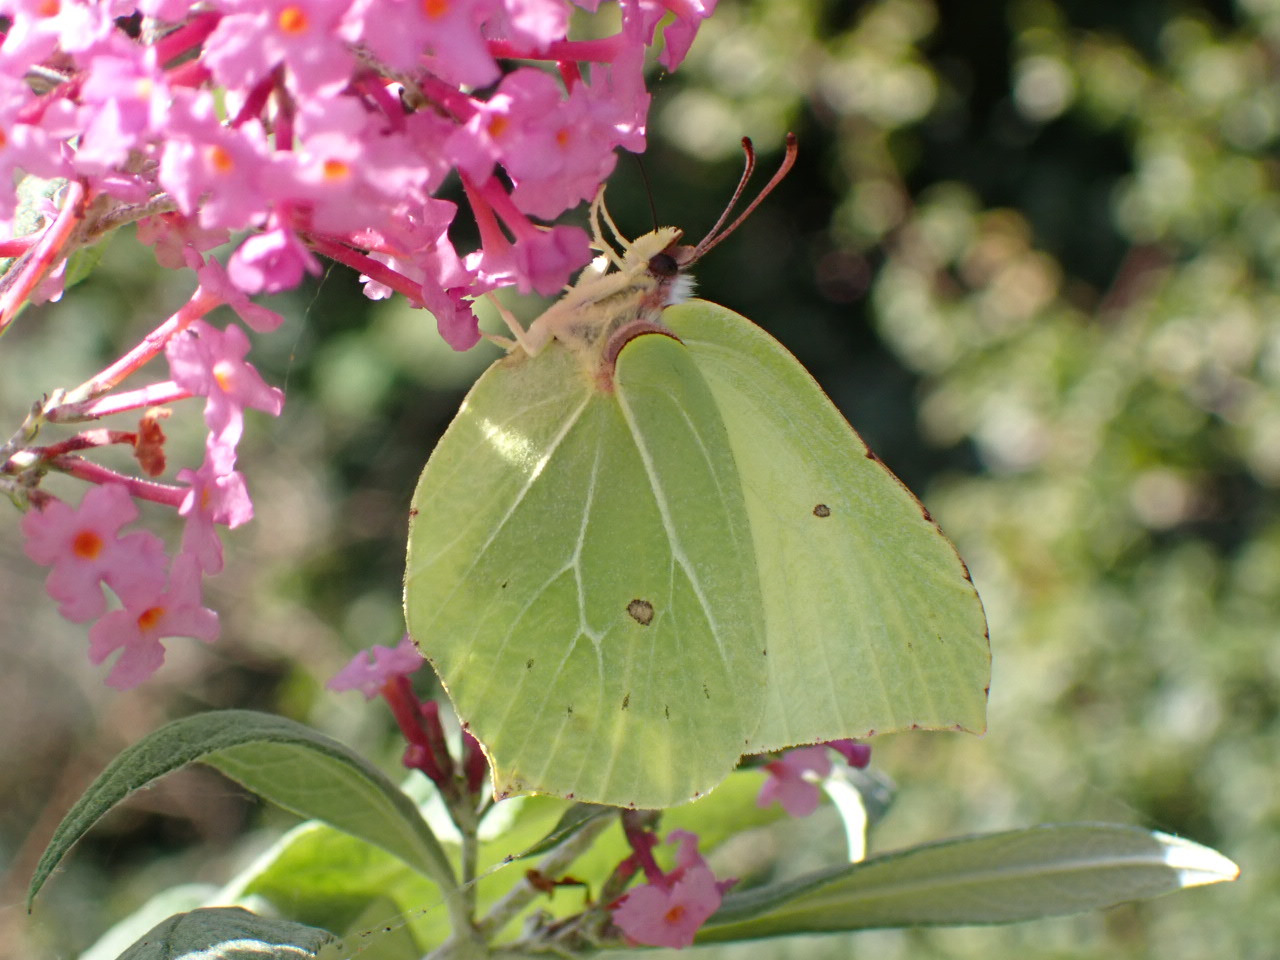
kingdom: Animalia
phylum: Arthropoda
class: Insecta
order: Lepidoptera
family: Pieridae
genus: Gonepteryx
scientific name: Gonepteryx rhamni
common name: Citronsommerfugl
